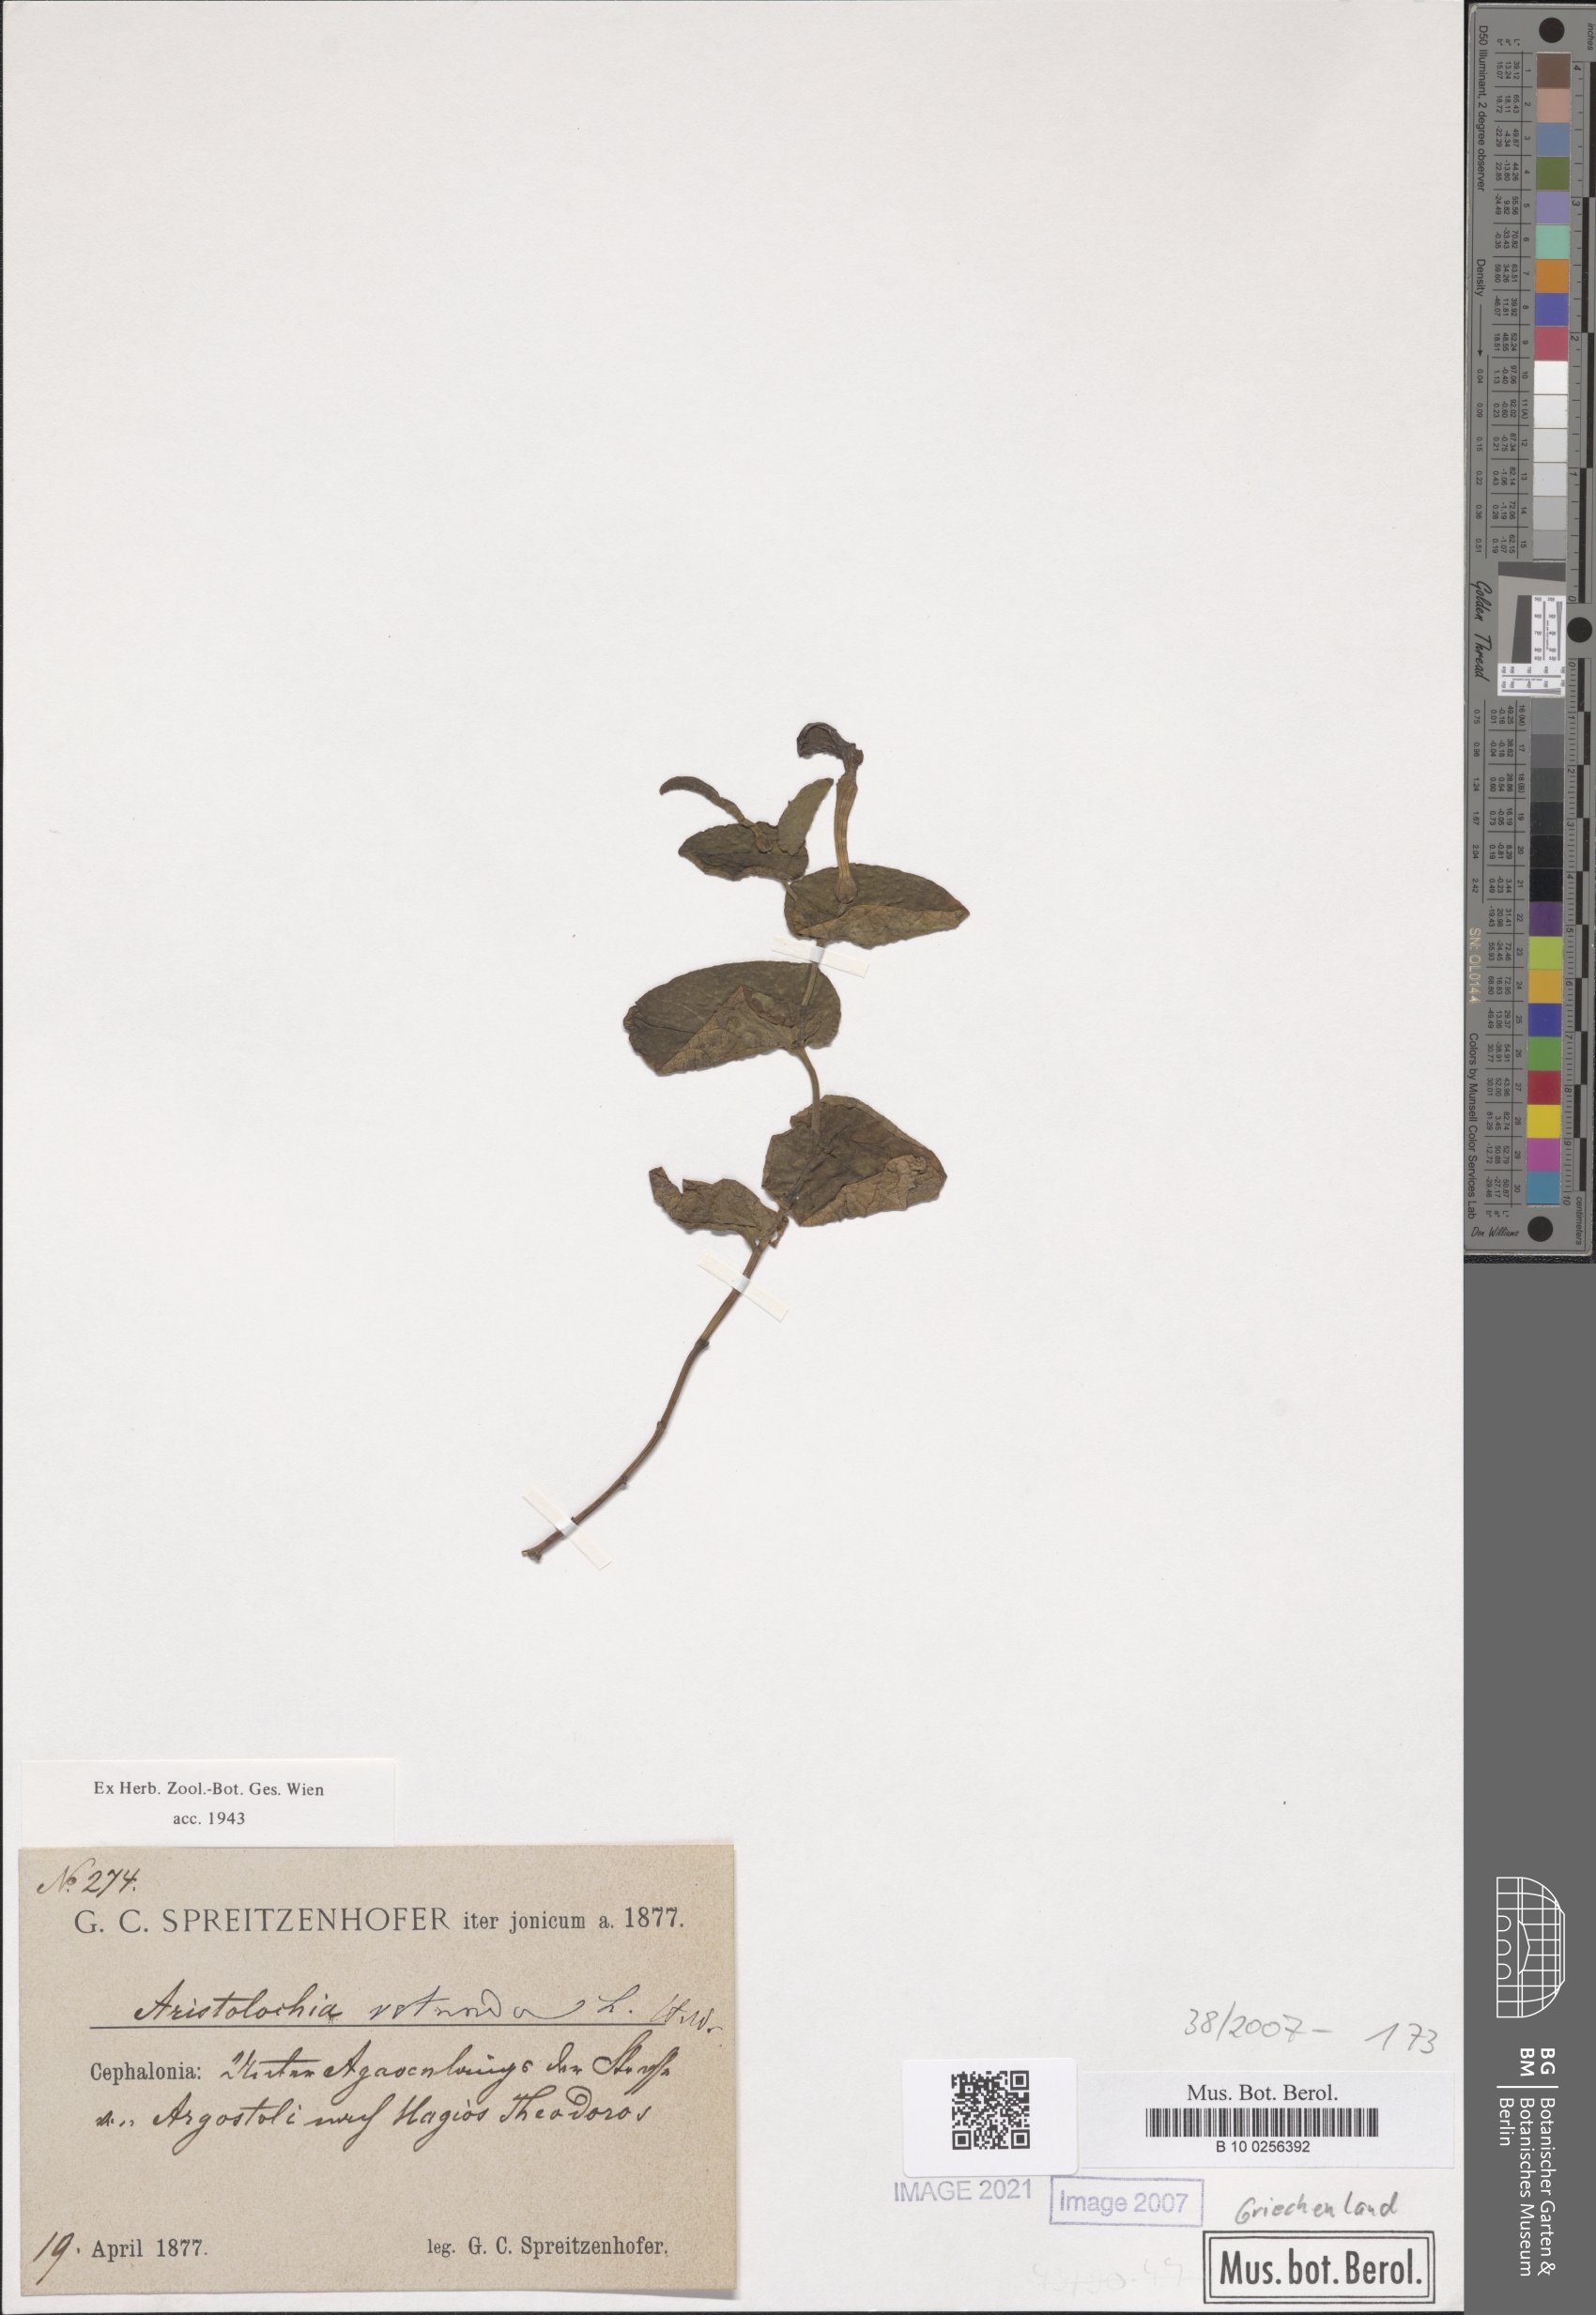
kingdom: Plantae
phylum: Tracheophyta
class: Magnoliopsida
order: Piperales
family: Aristolochiaceae
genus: Aristolochia
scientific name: Aristolochia rotunda
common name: Smearwort
